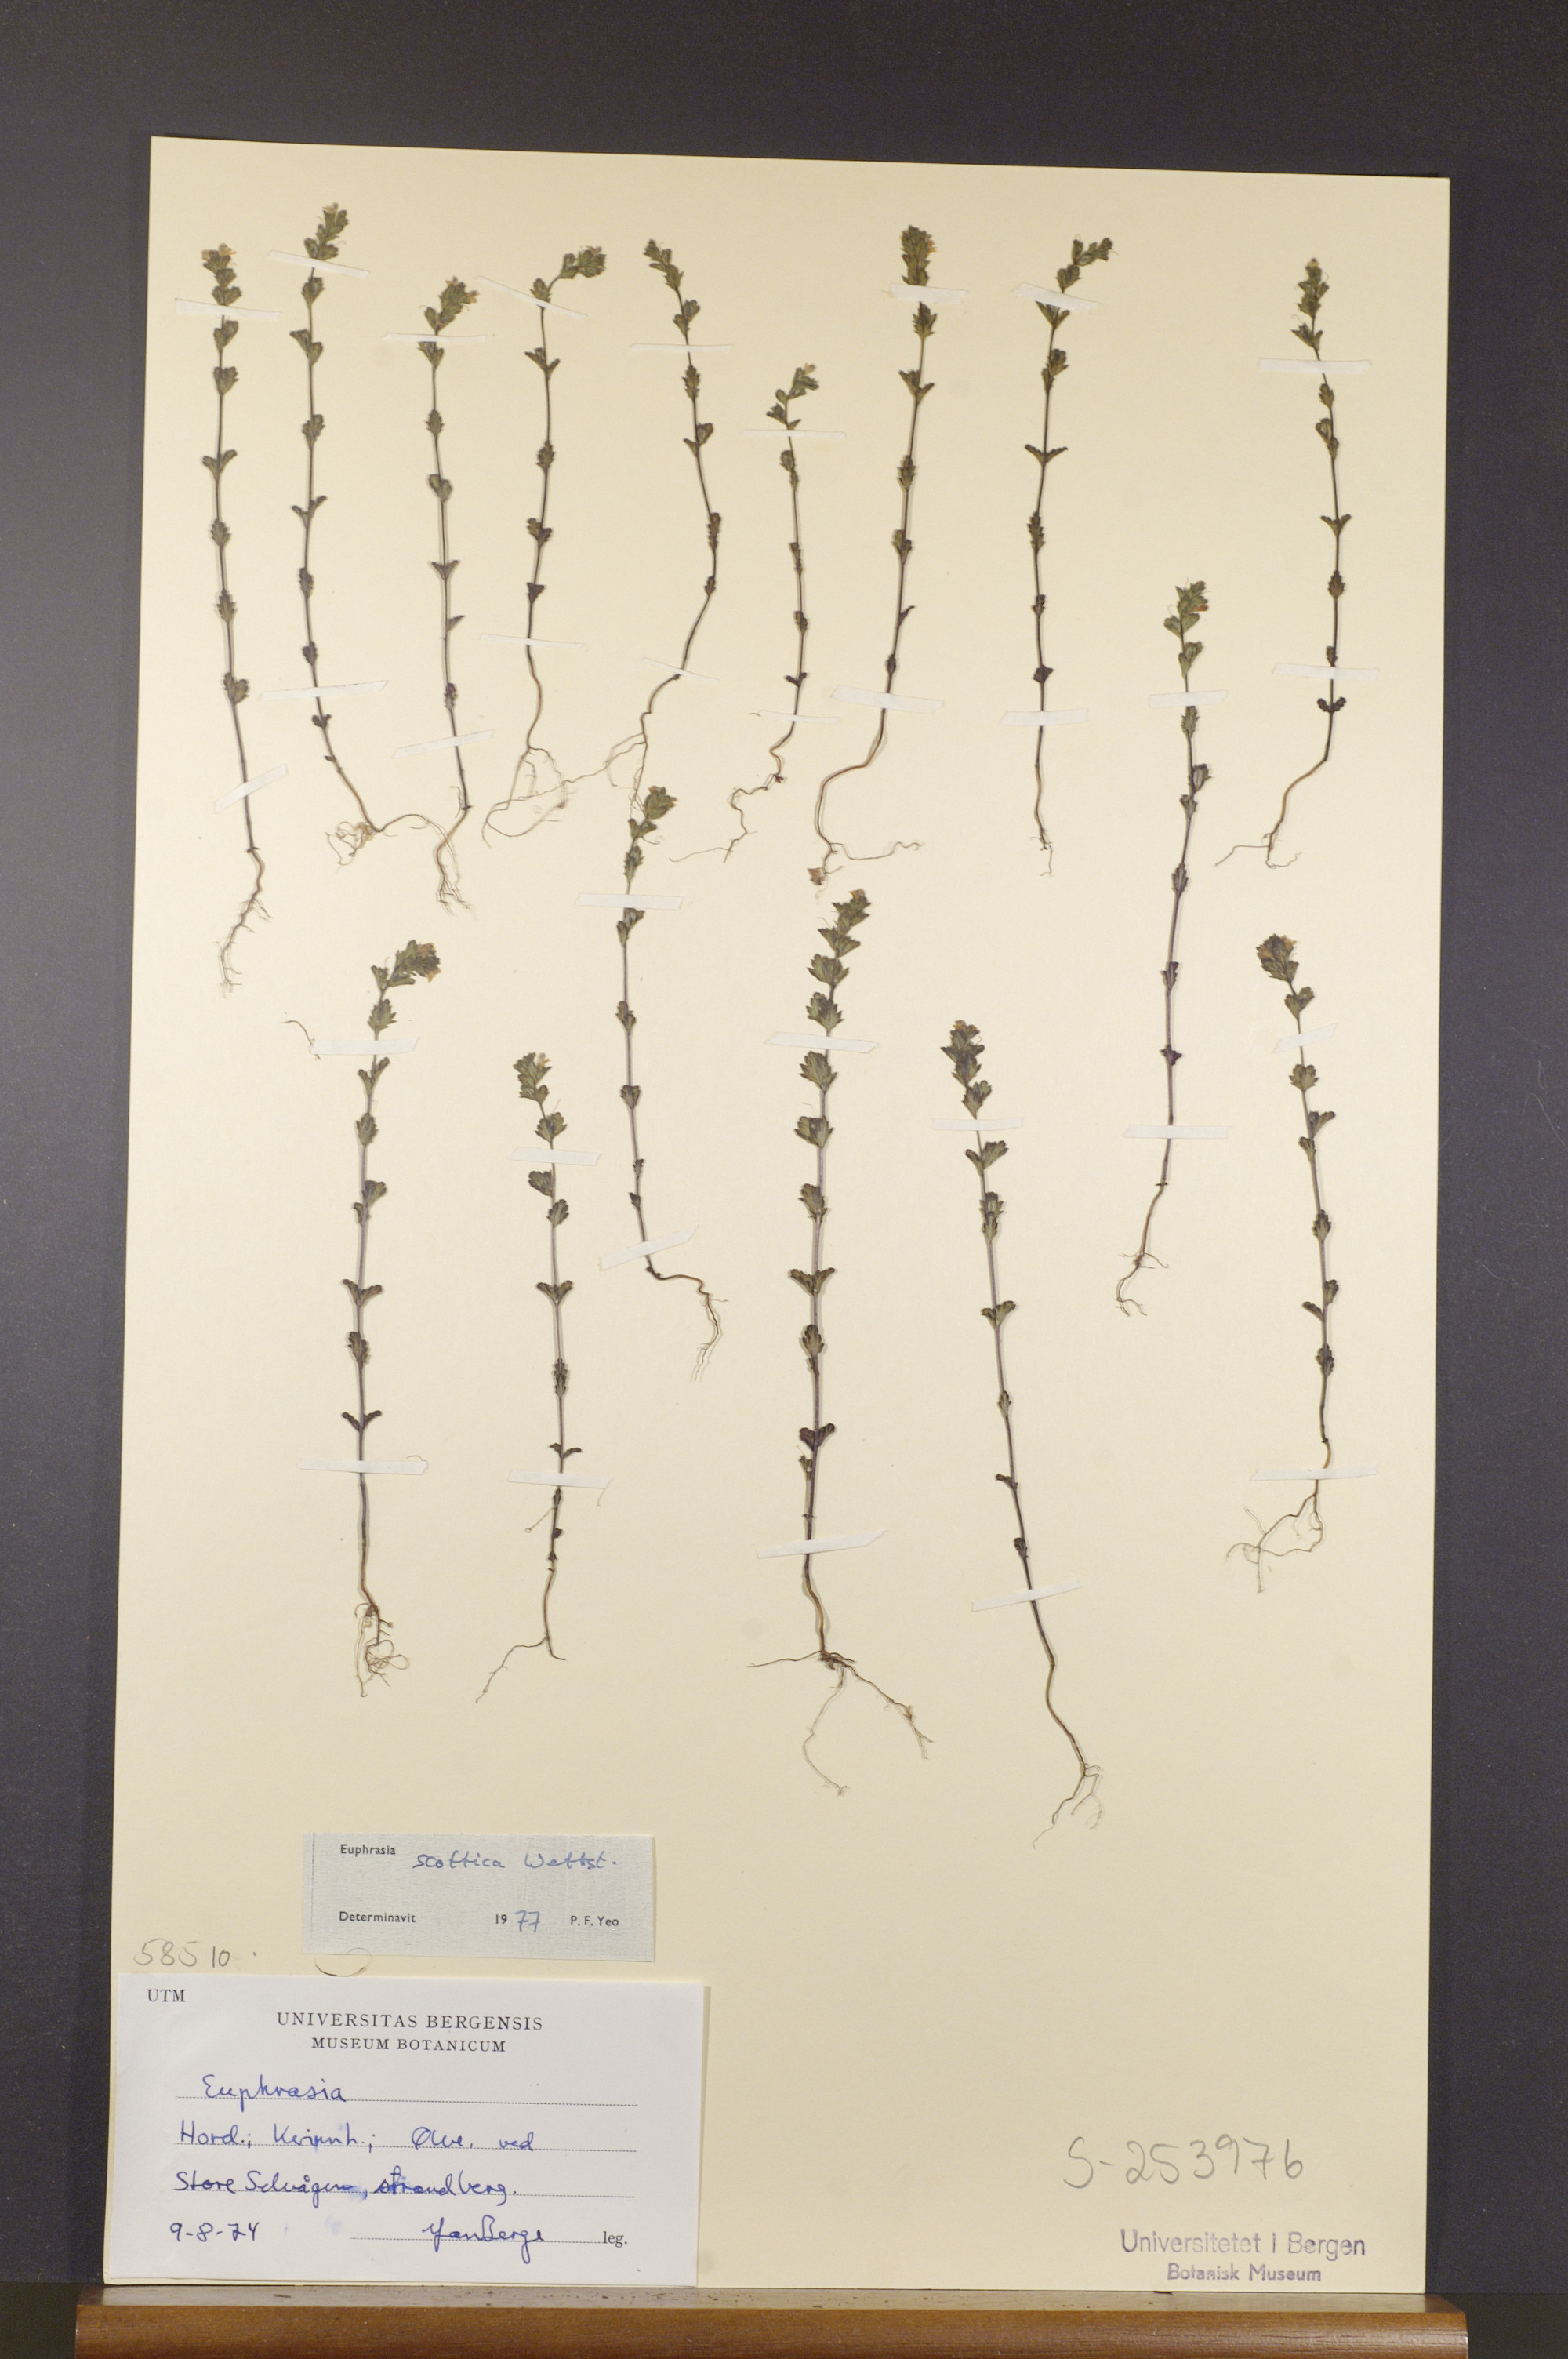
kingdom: Plantae
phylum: Tracheophyta
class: Magnoliopsida
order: Lamiales
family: Orobanchaceae
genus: Euphrasia
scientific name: Euphrasia scottica
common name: Slender scottish eyebright
